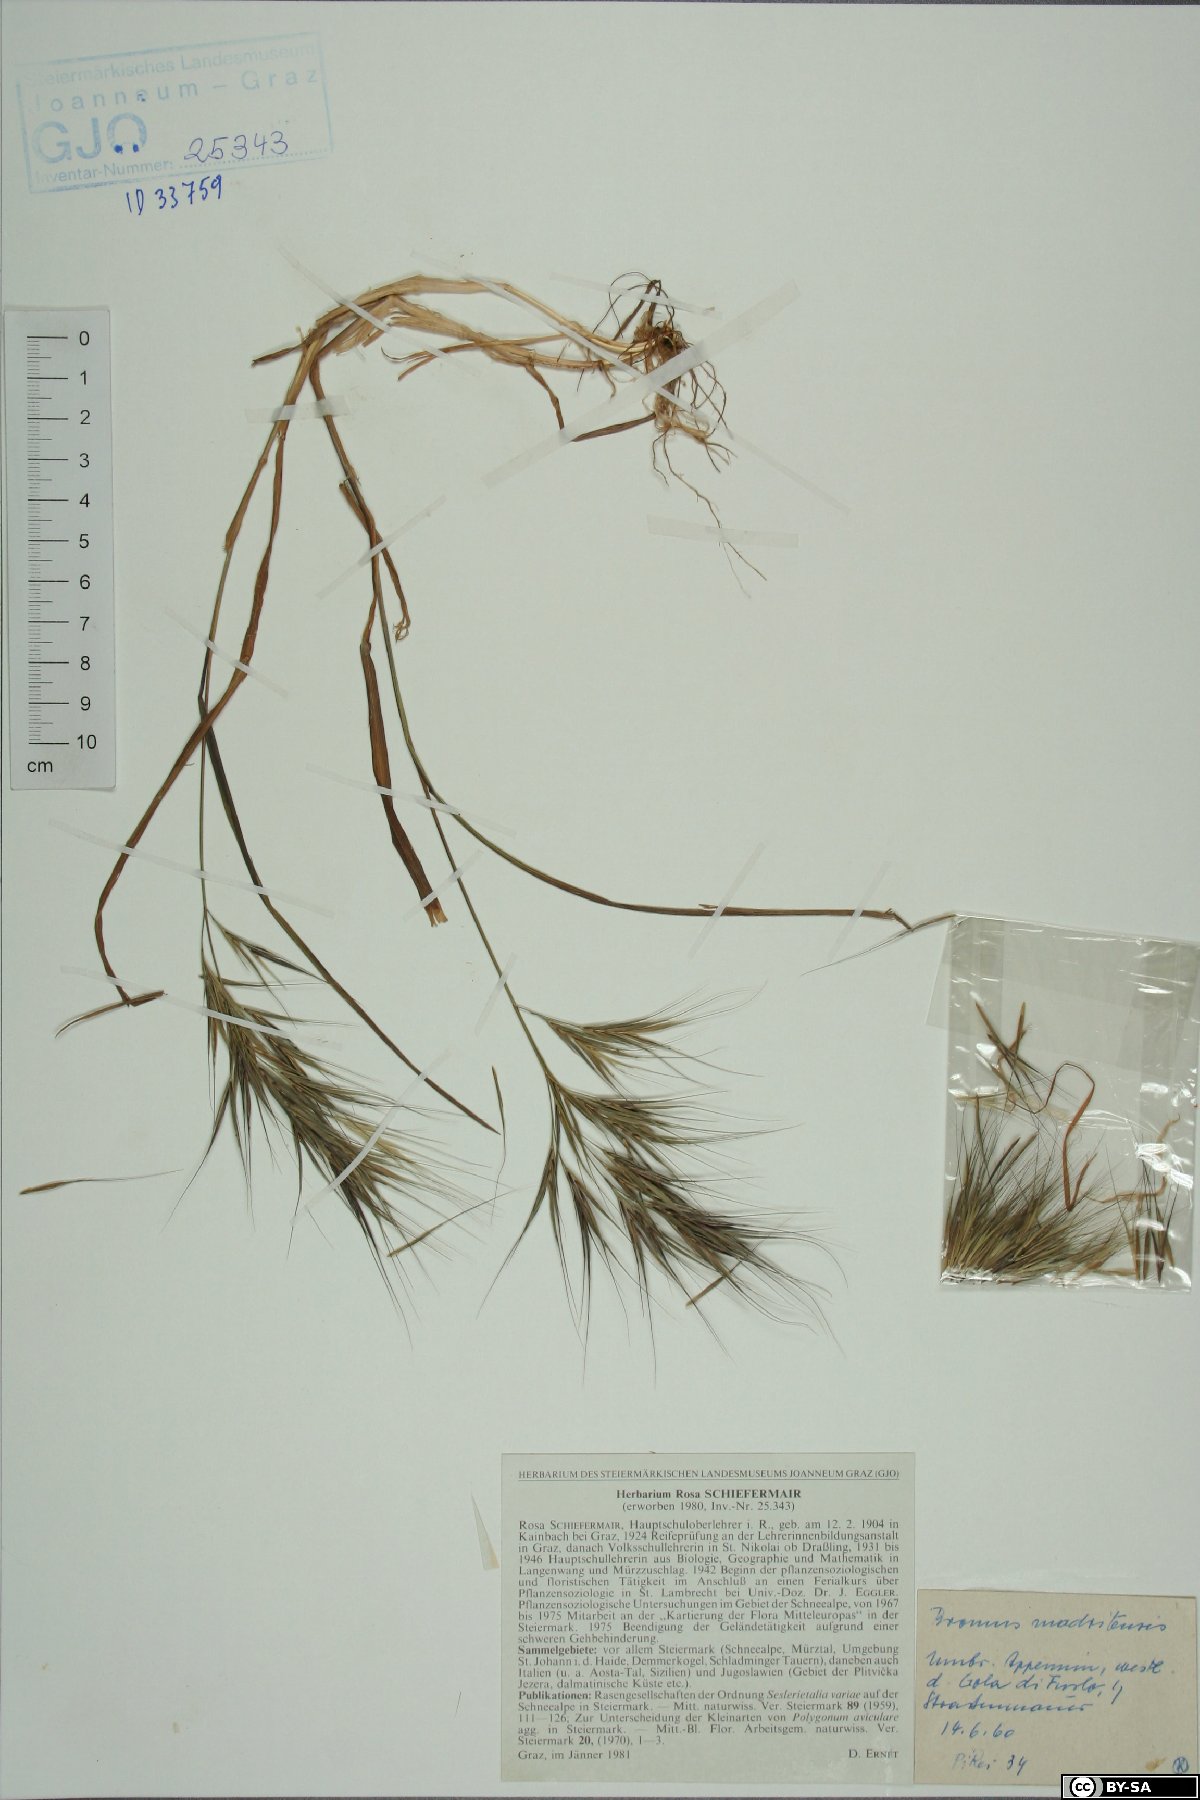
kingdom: Plantae
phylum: Tracheophyta
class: Liliopsida
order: Poales
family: Poaceae
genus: Bromus
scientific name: Bromus madritensis
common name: Compact brome
